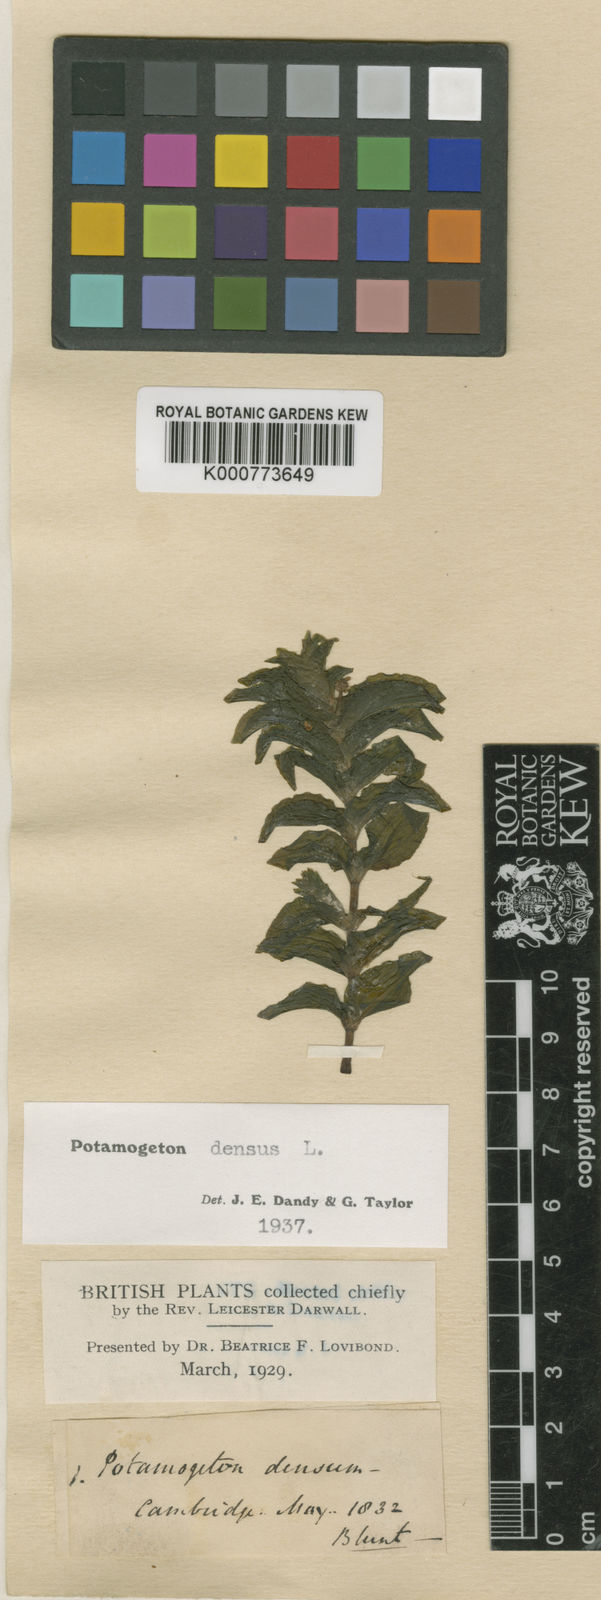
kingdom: Plantae
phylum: Tracheophyta
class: Liliopsida
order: Alismatales
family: Potamogetonaceae
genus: Groenlandia
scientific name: Groenlandia densa
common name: Opposite-leaved pondweed
